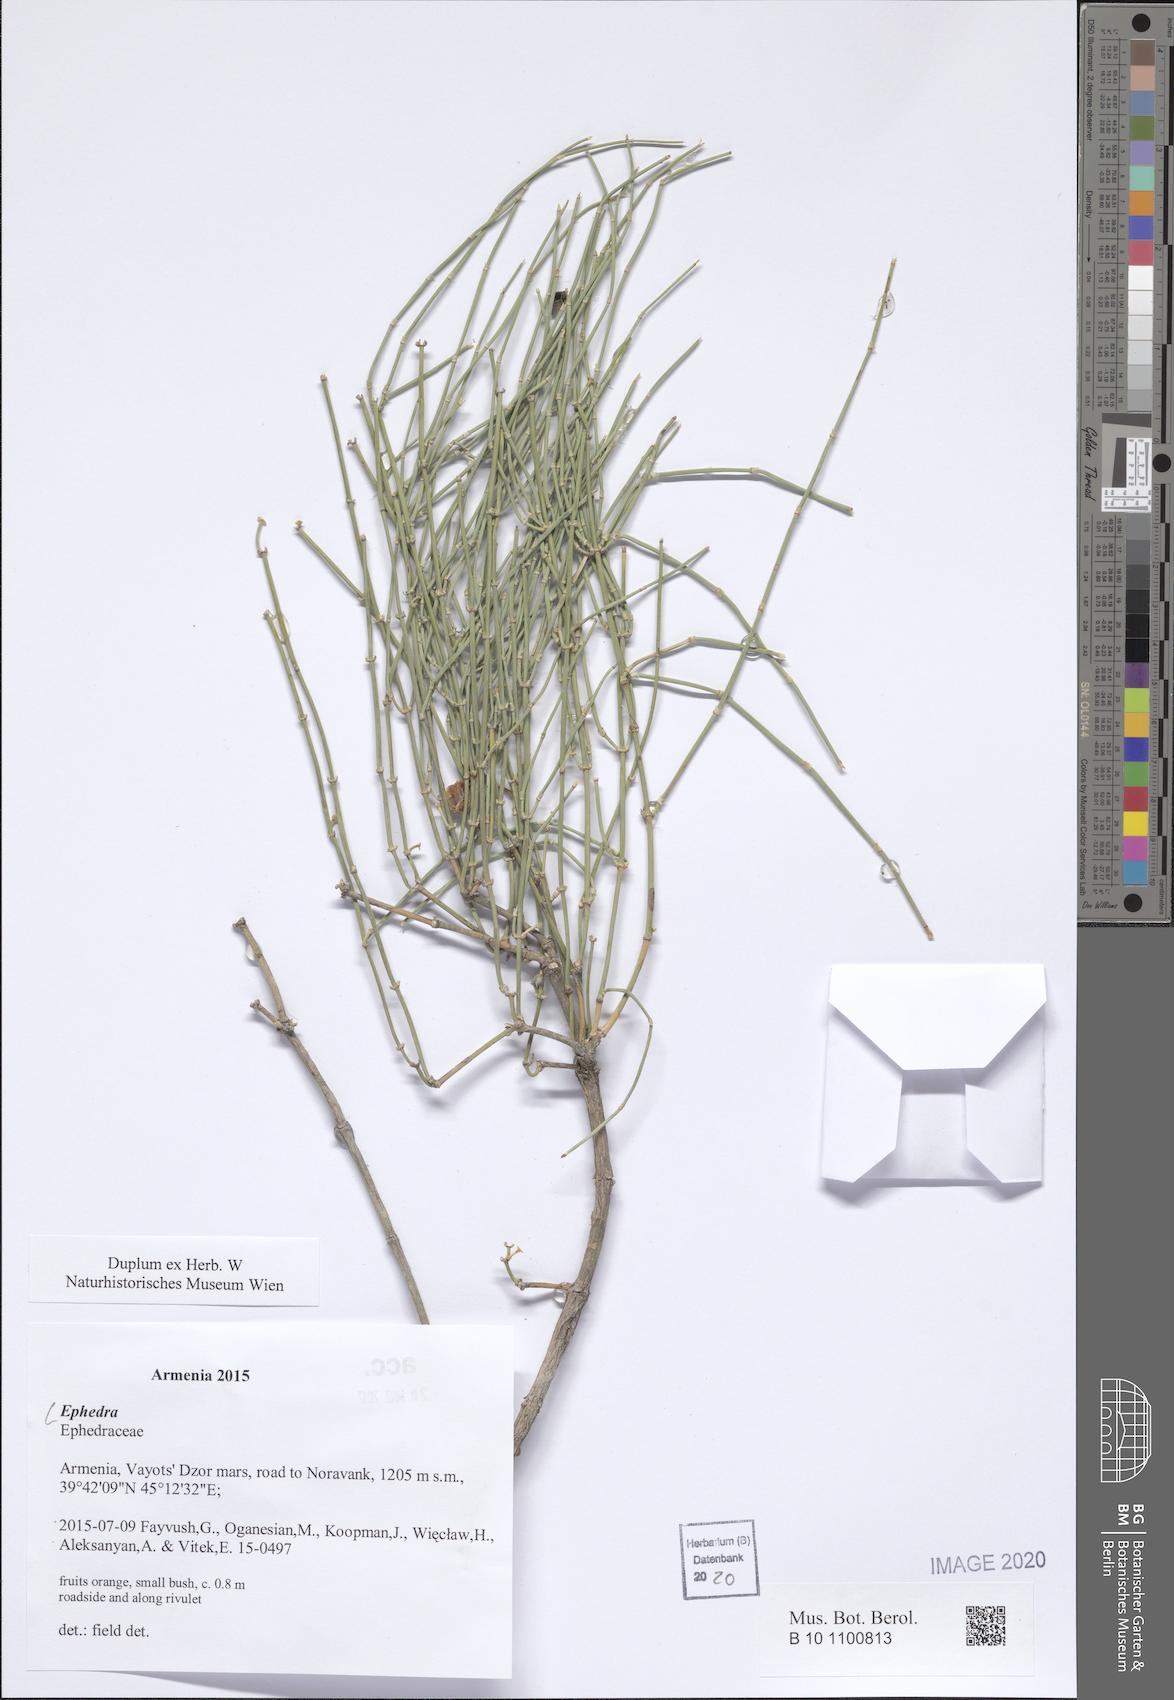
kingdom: Plantae
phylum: Tracheophyta
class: Gnetopsida
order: Ephedrales
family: Ephedraceae
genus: Ephedra
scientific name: Ephedra
